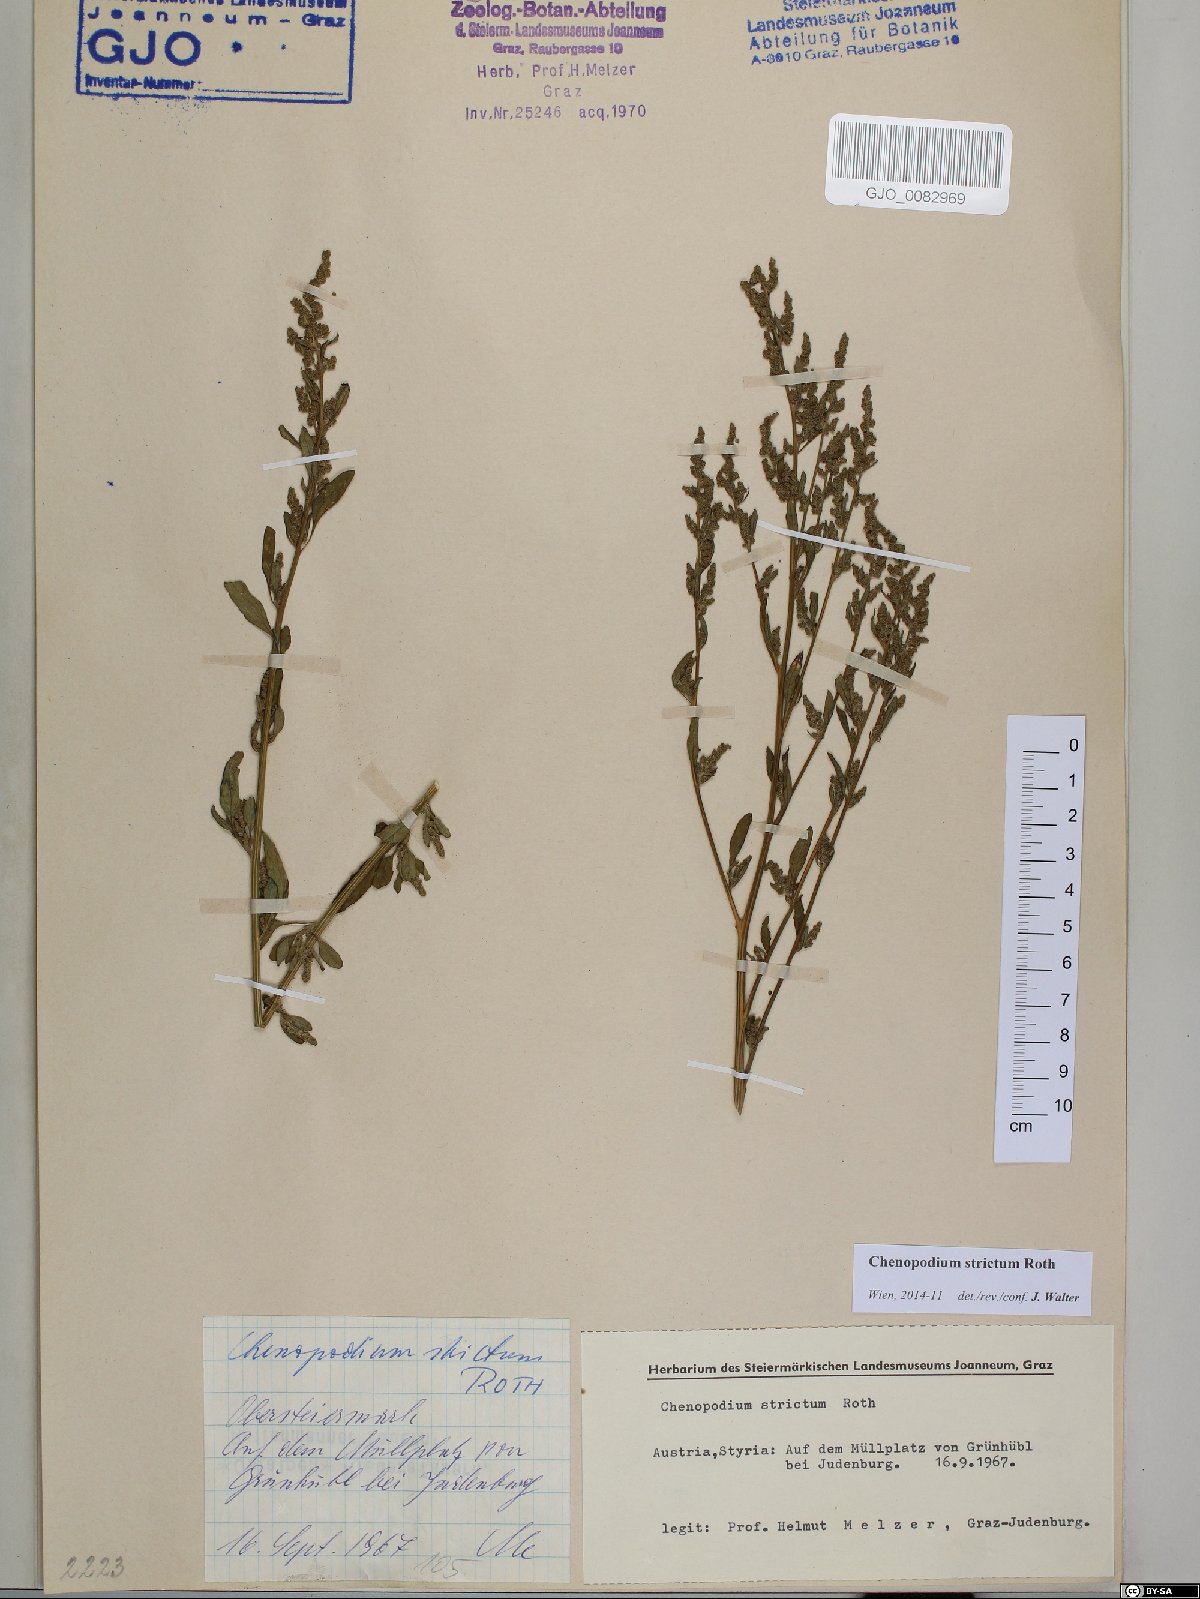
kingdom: Plantae
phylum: Tracheophyta
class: Magnoliopsida
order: Caryophyllales
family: Amaranthaceae
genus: Chenopodium
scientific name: Chenopodium album
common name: Fat-hen
